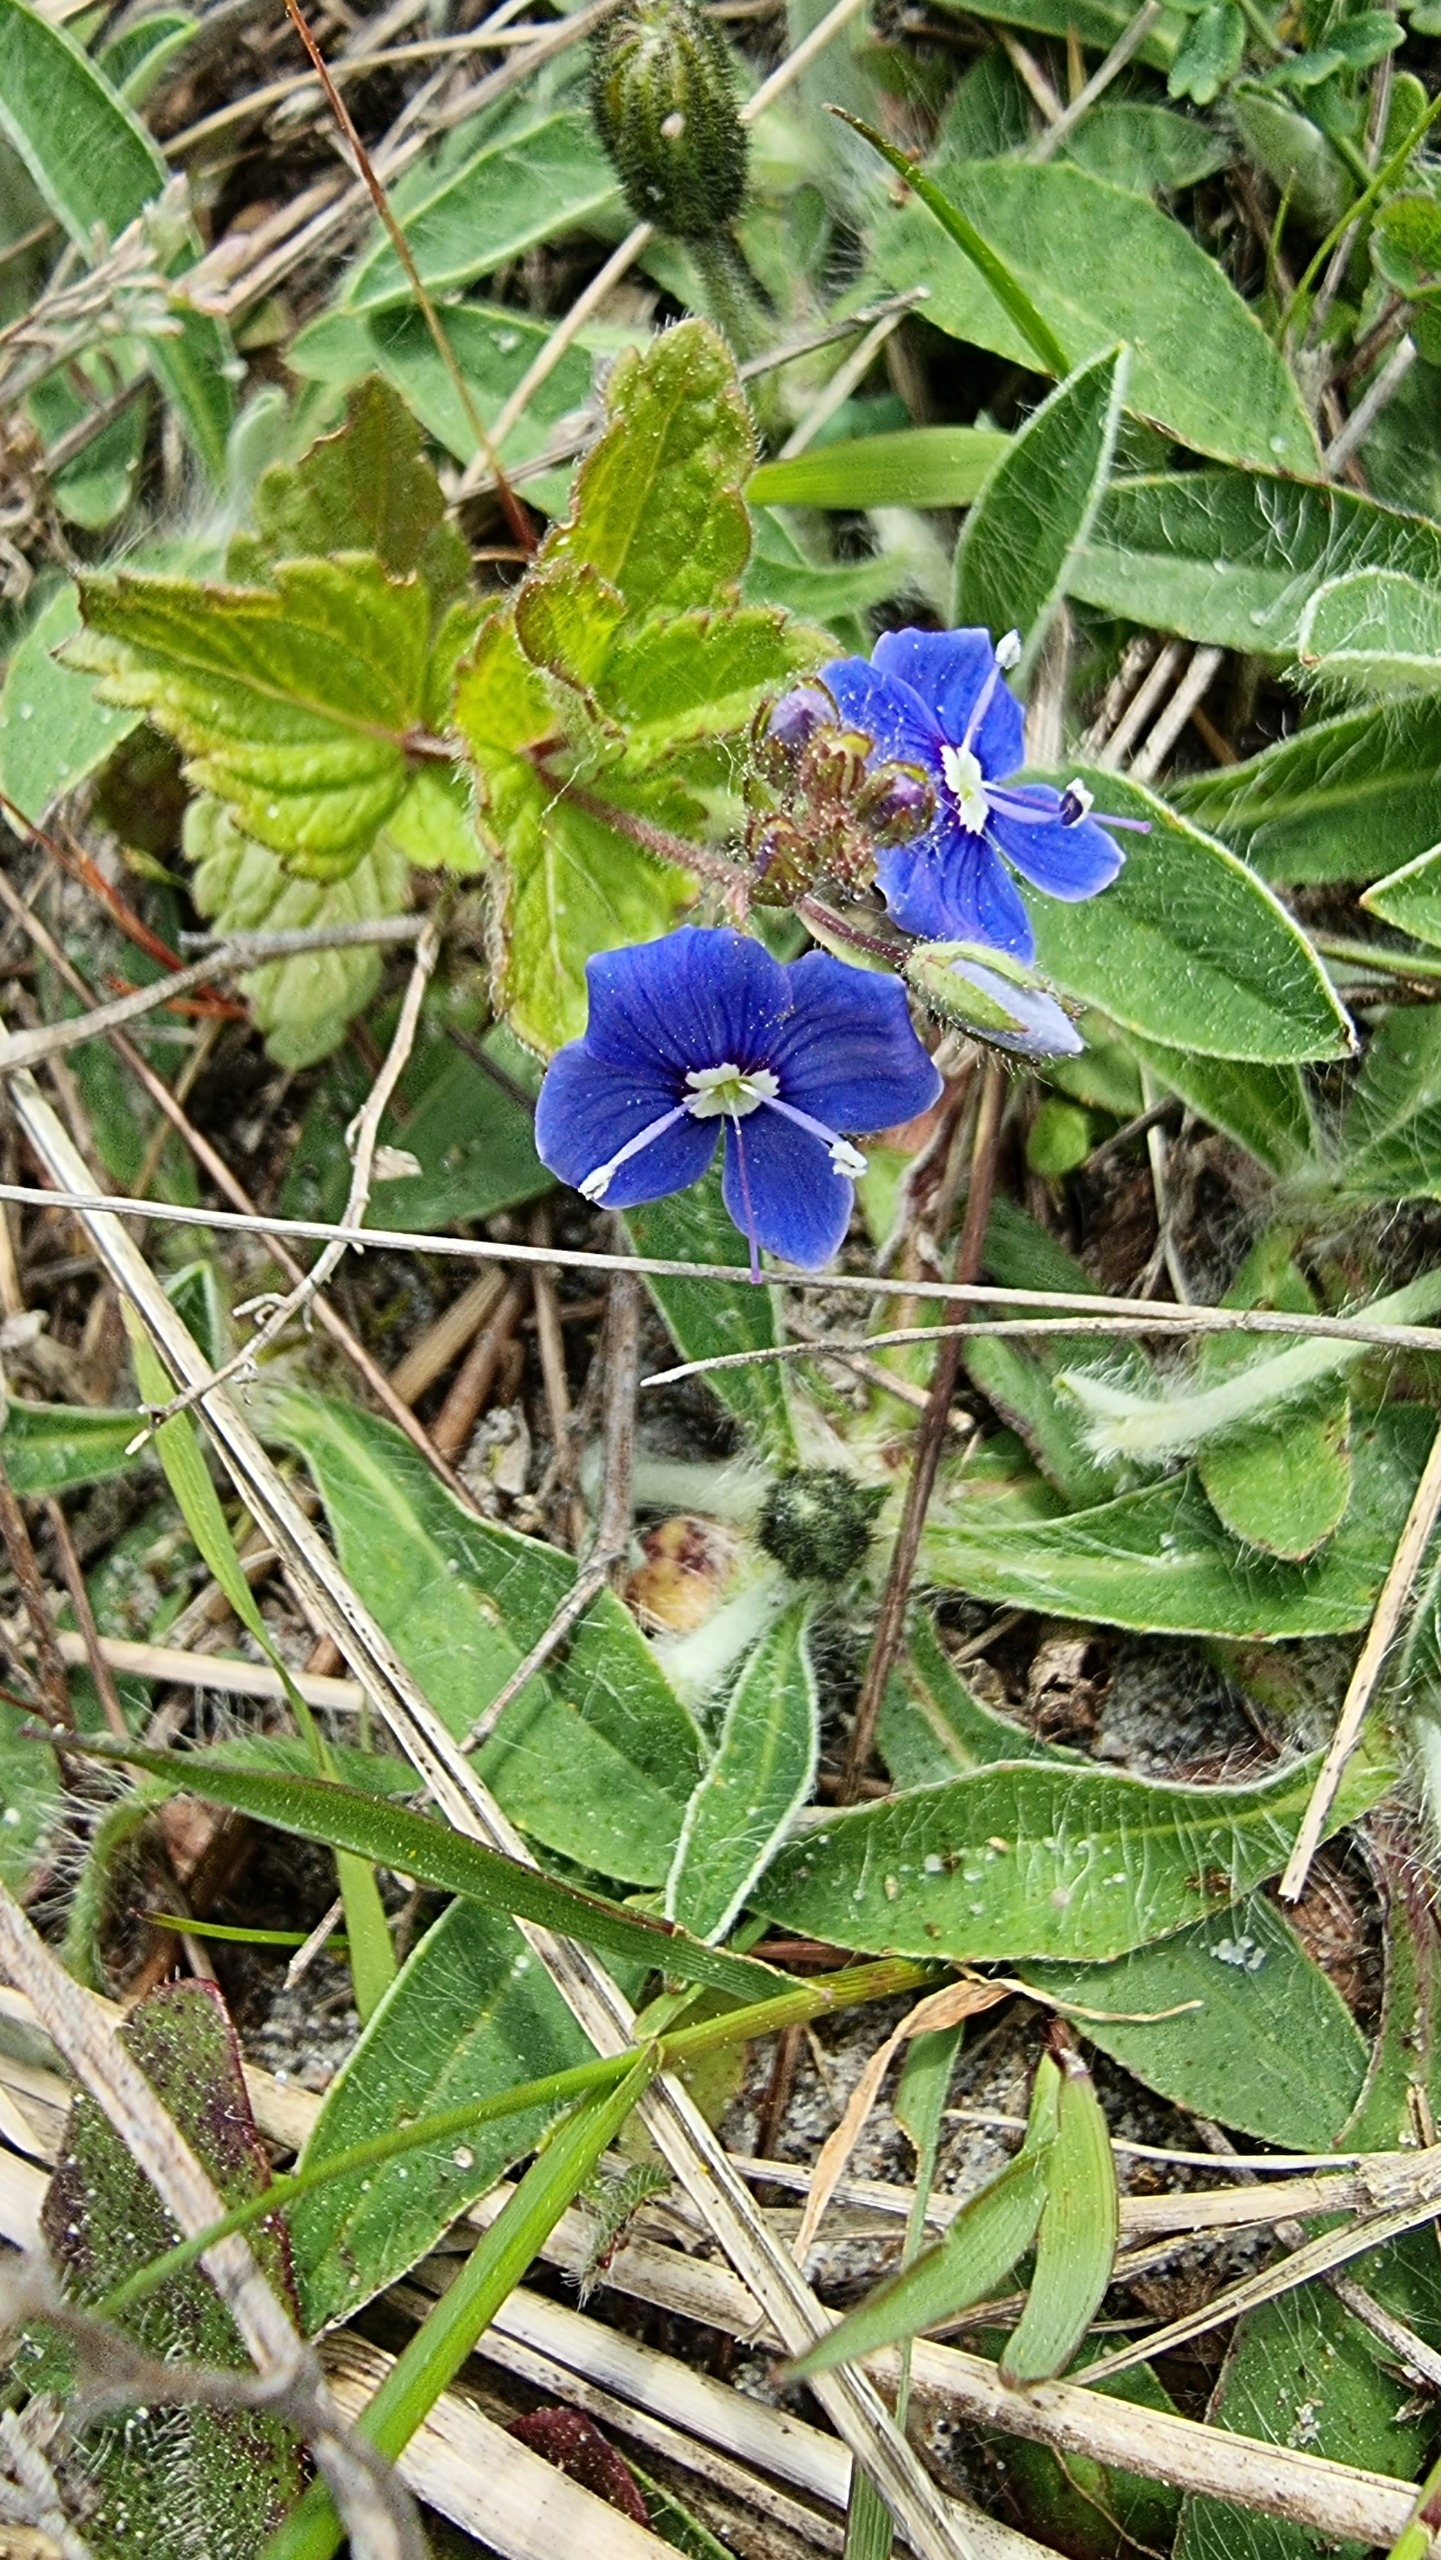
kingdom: Plantae
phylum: Tracheophyta
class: Magnoliopsida
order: Lamiales
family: Plantaginaceae
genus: Veronica
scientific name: Veronica chamaedrys
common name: Tveskægget ærenpris
